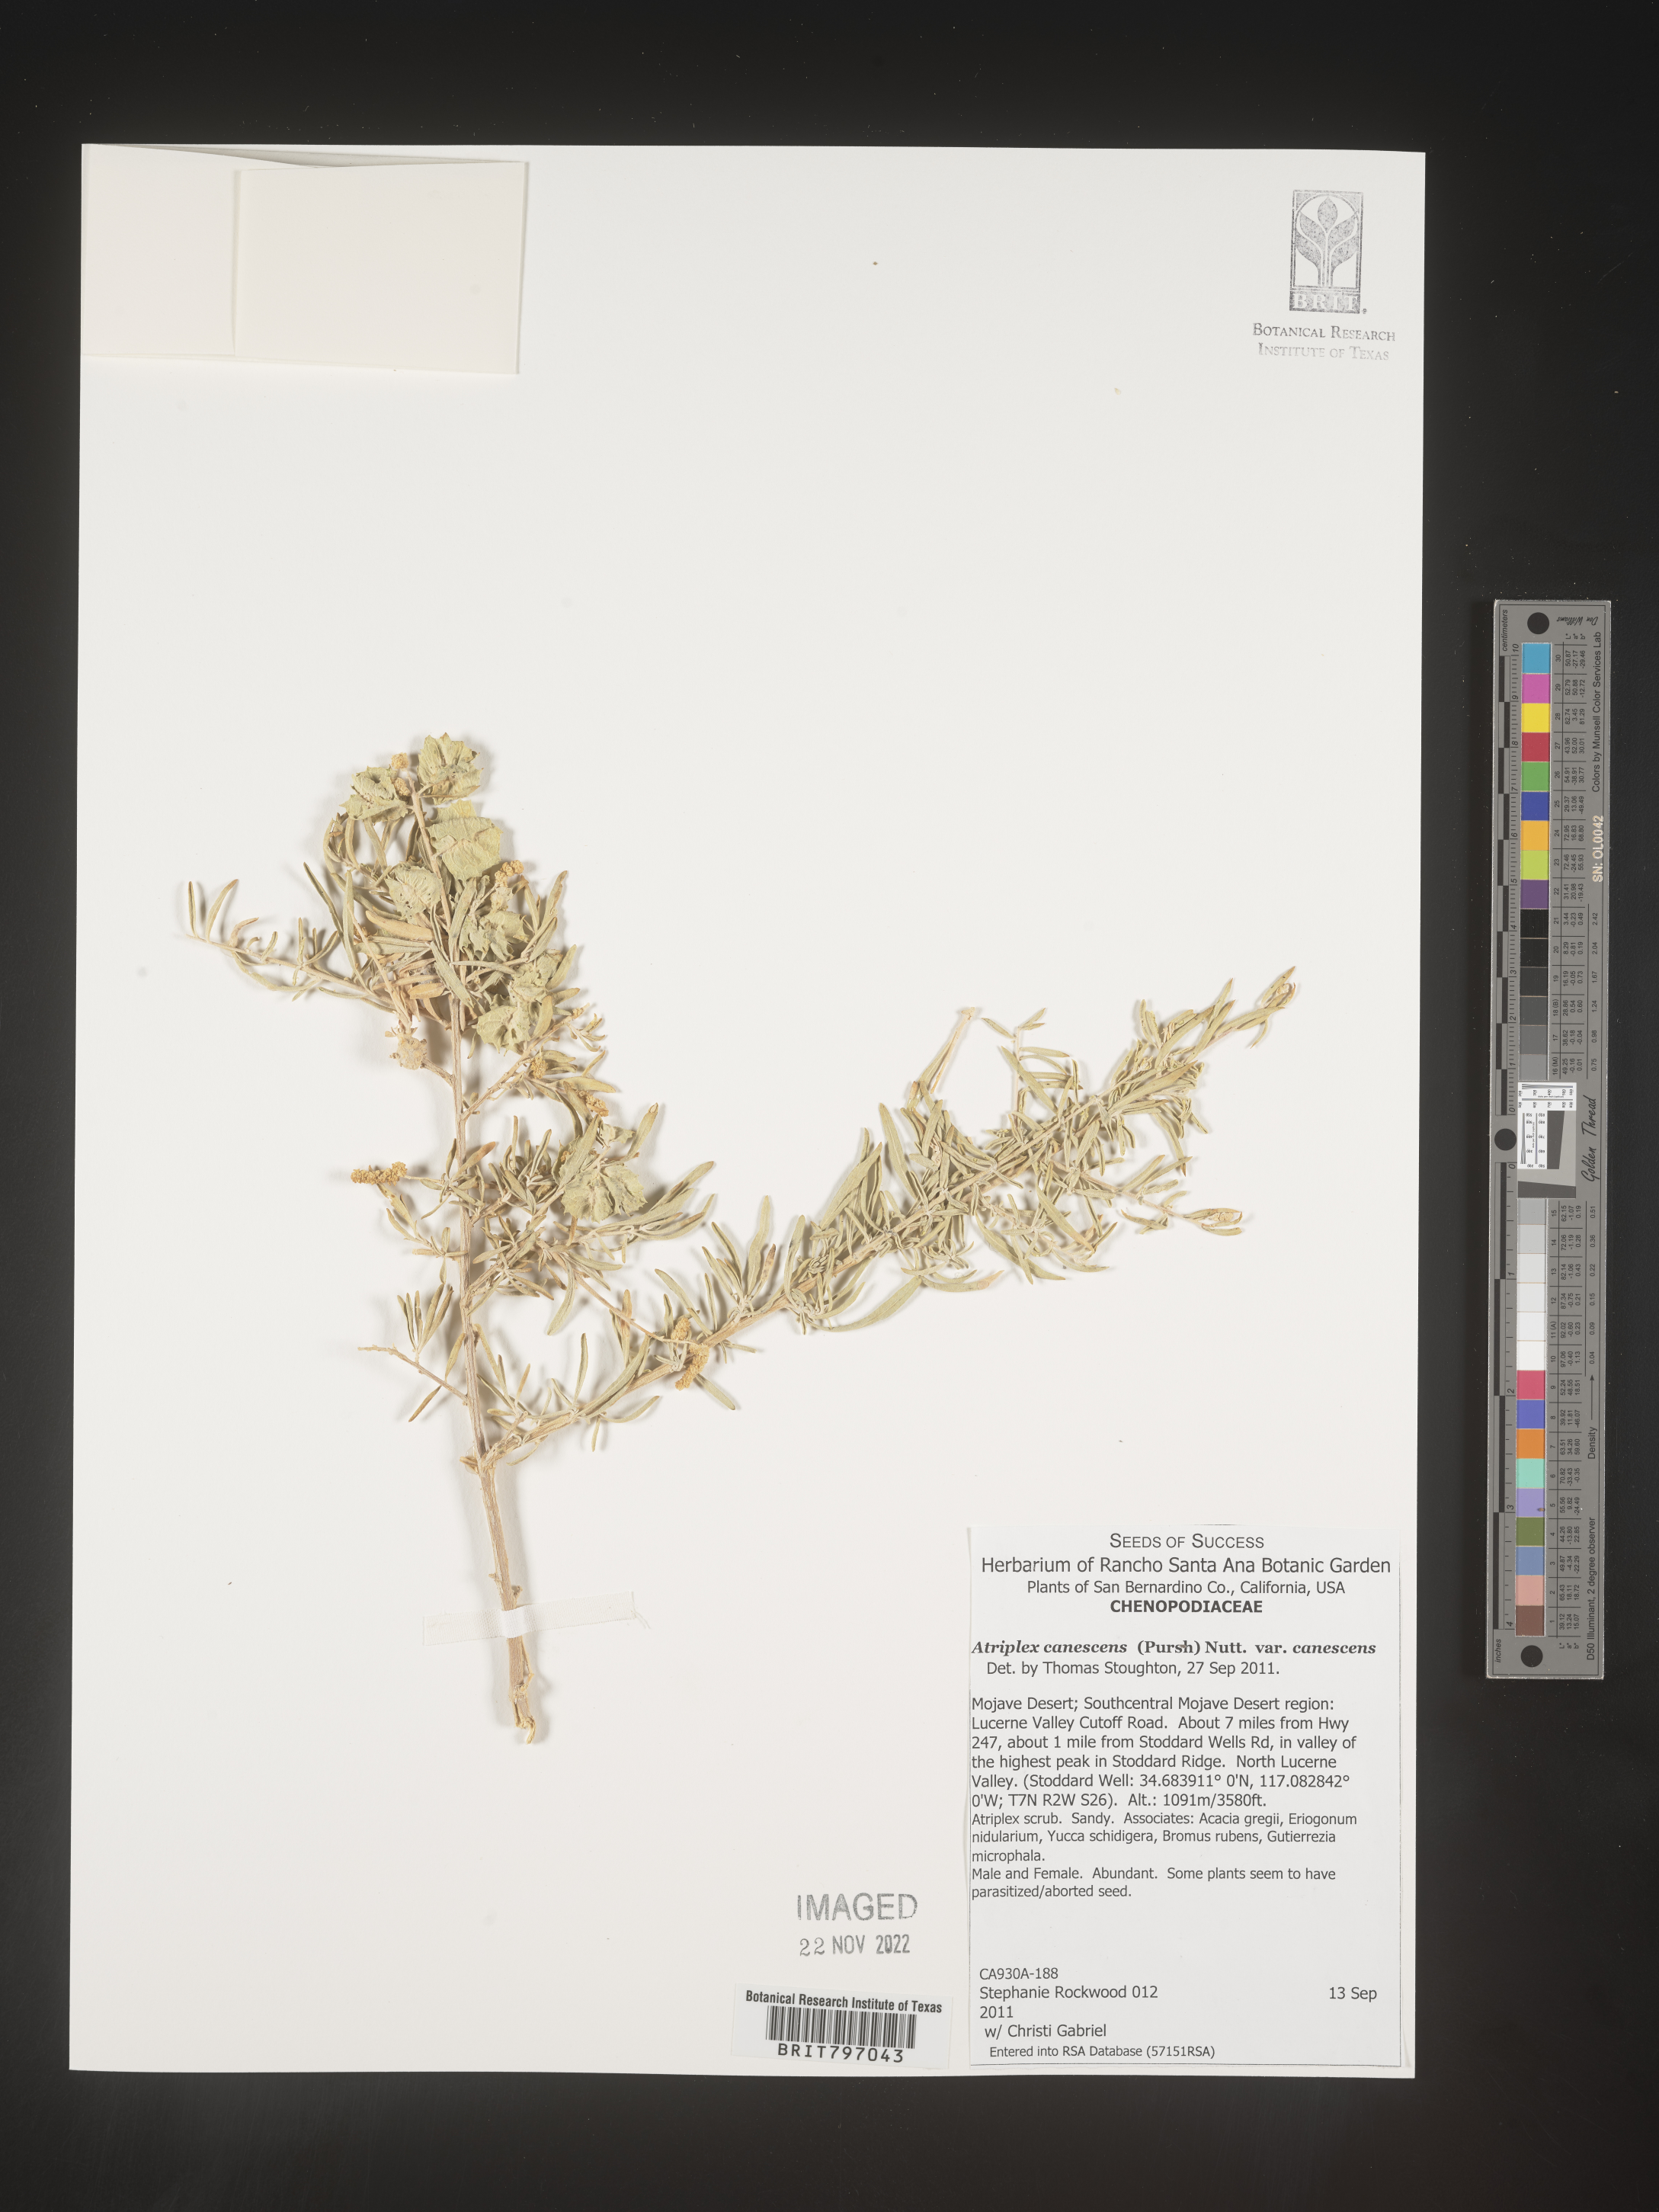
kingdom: Plantae
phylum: Tracheophyta
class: Magnoliopsida
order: Caryophyllales
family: Amaranthaceae
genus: Atriplex
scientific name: Atriplex canescens
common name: Four-wing saltbush
